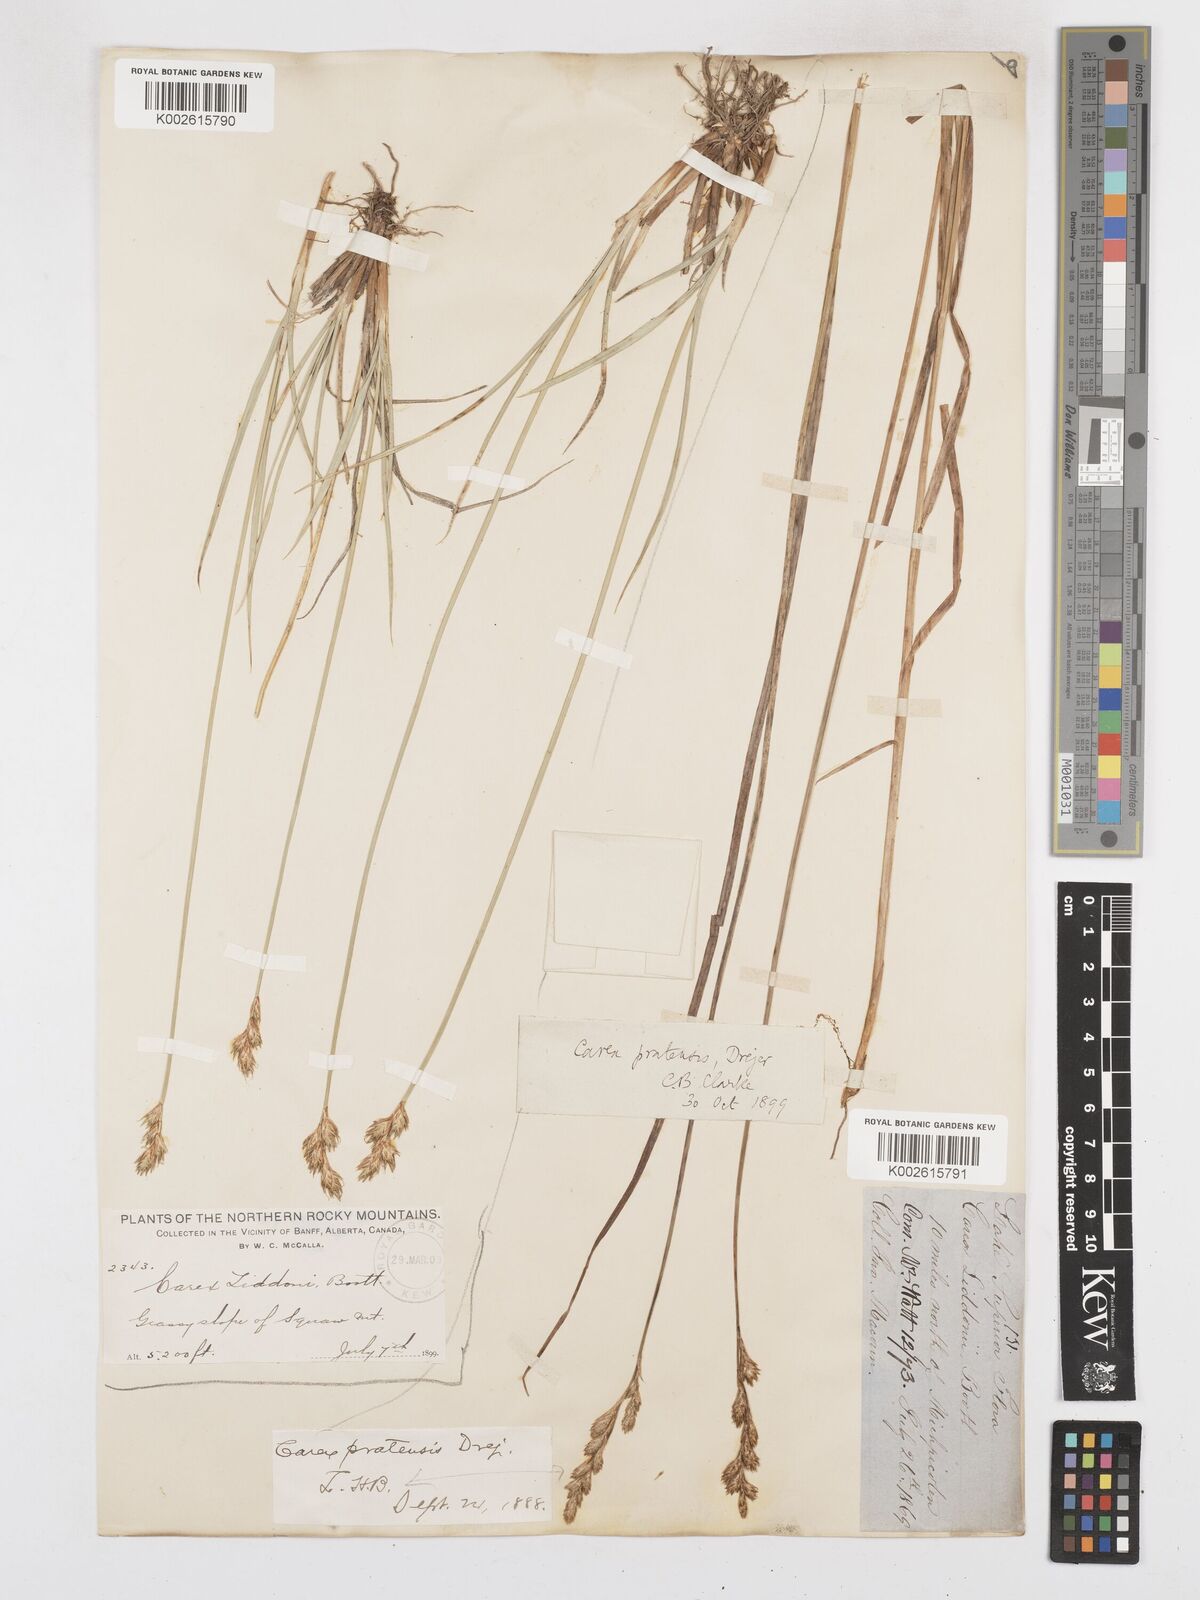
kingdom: Plantae
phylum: Tracheophyta
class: Liliopsida
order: Poales
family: Cyperaceae
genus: Carex
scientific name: Carex praticola
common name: Large-fruited oval sedge
